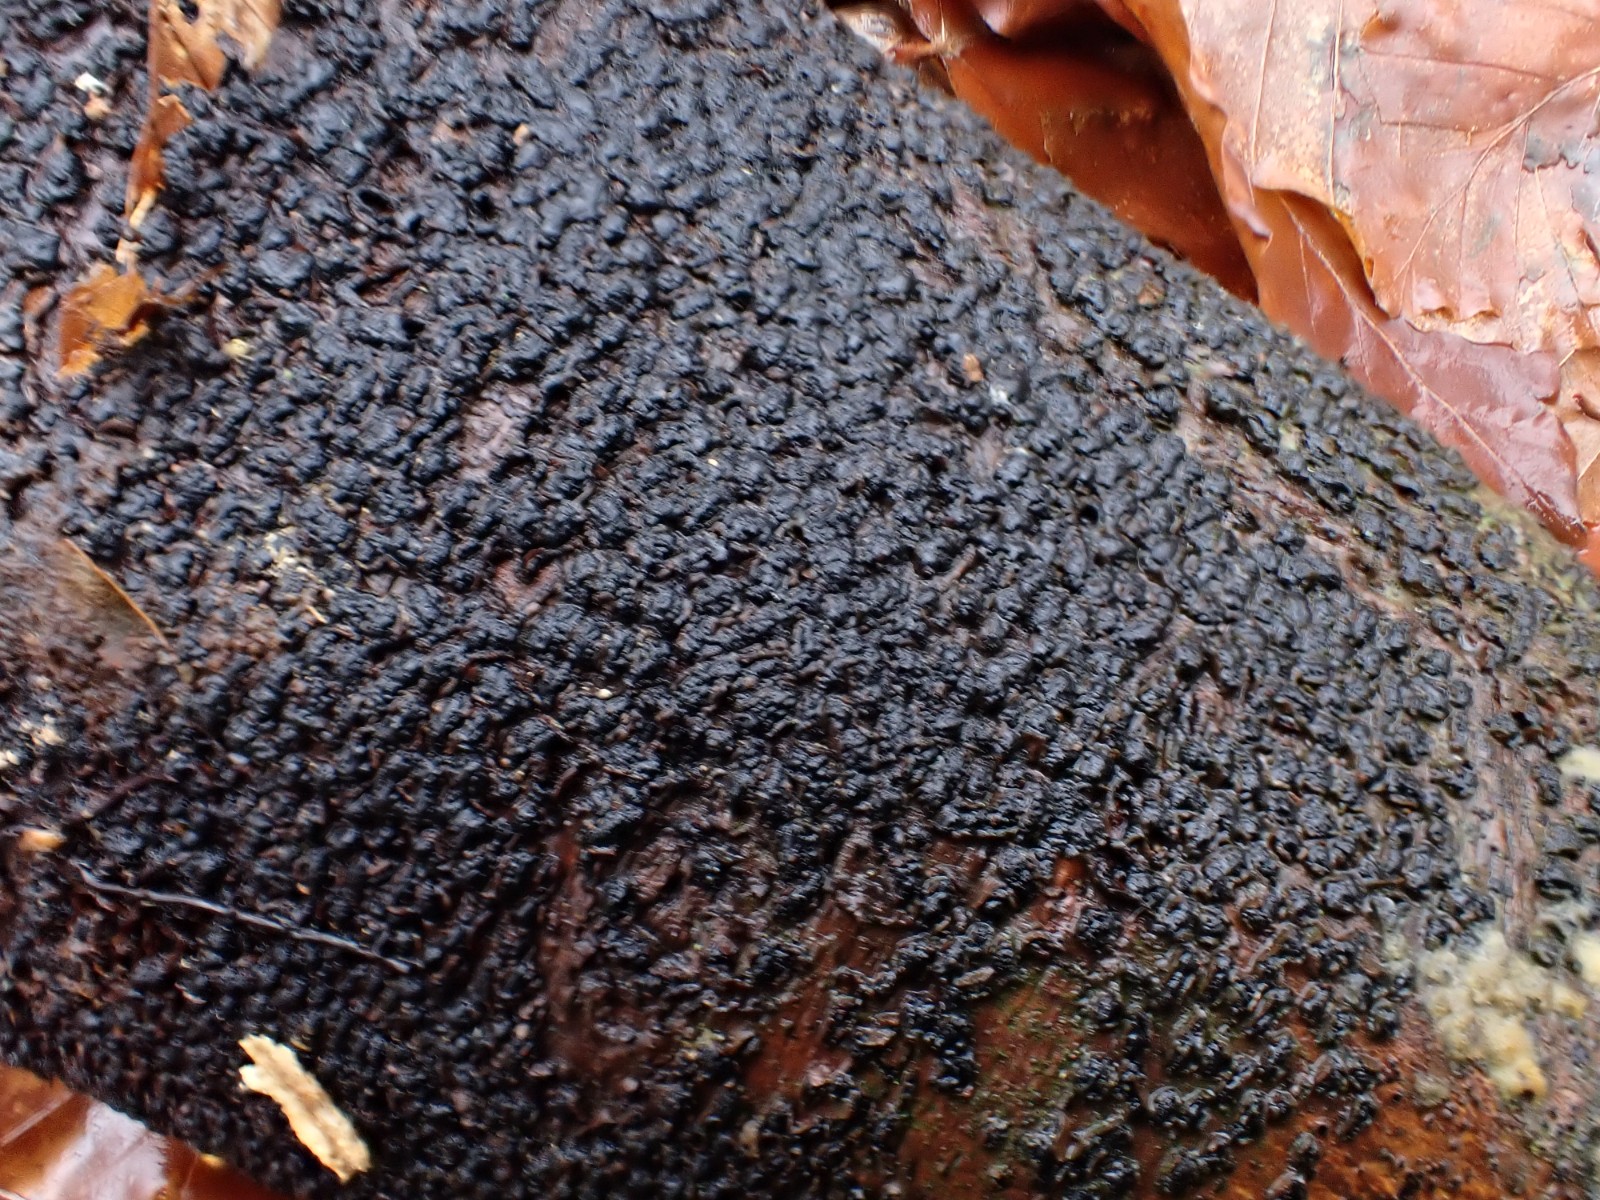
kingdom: Fungi
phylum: Ascomycota
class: Sordariomycetes
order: Xylariales
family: Melogrammataceae
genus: Melogramma
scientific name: Melogramma spiniferum
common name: bøgefod-kulhals
